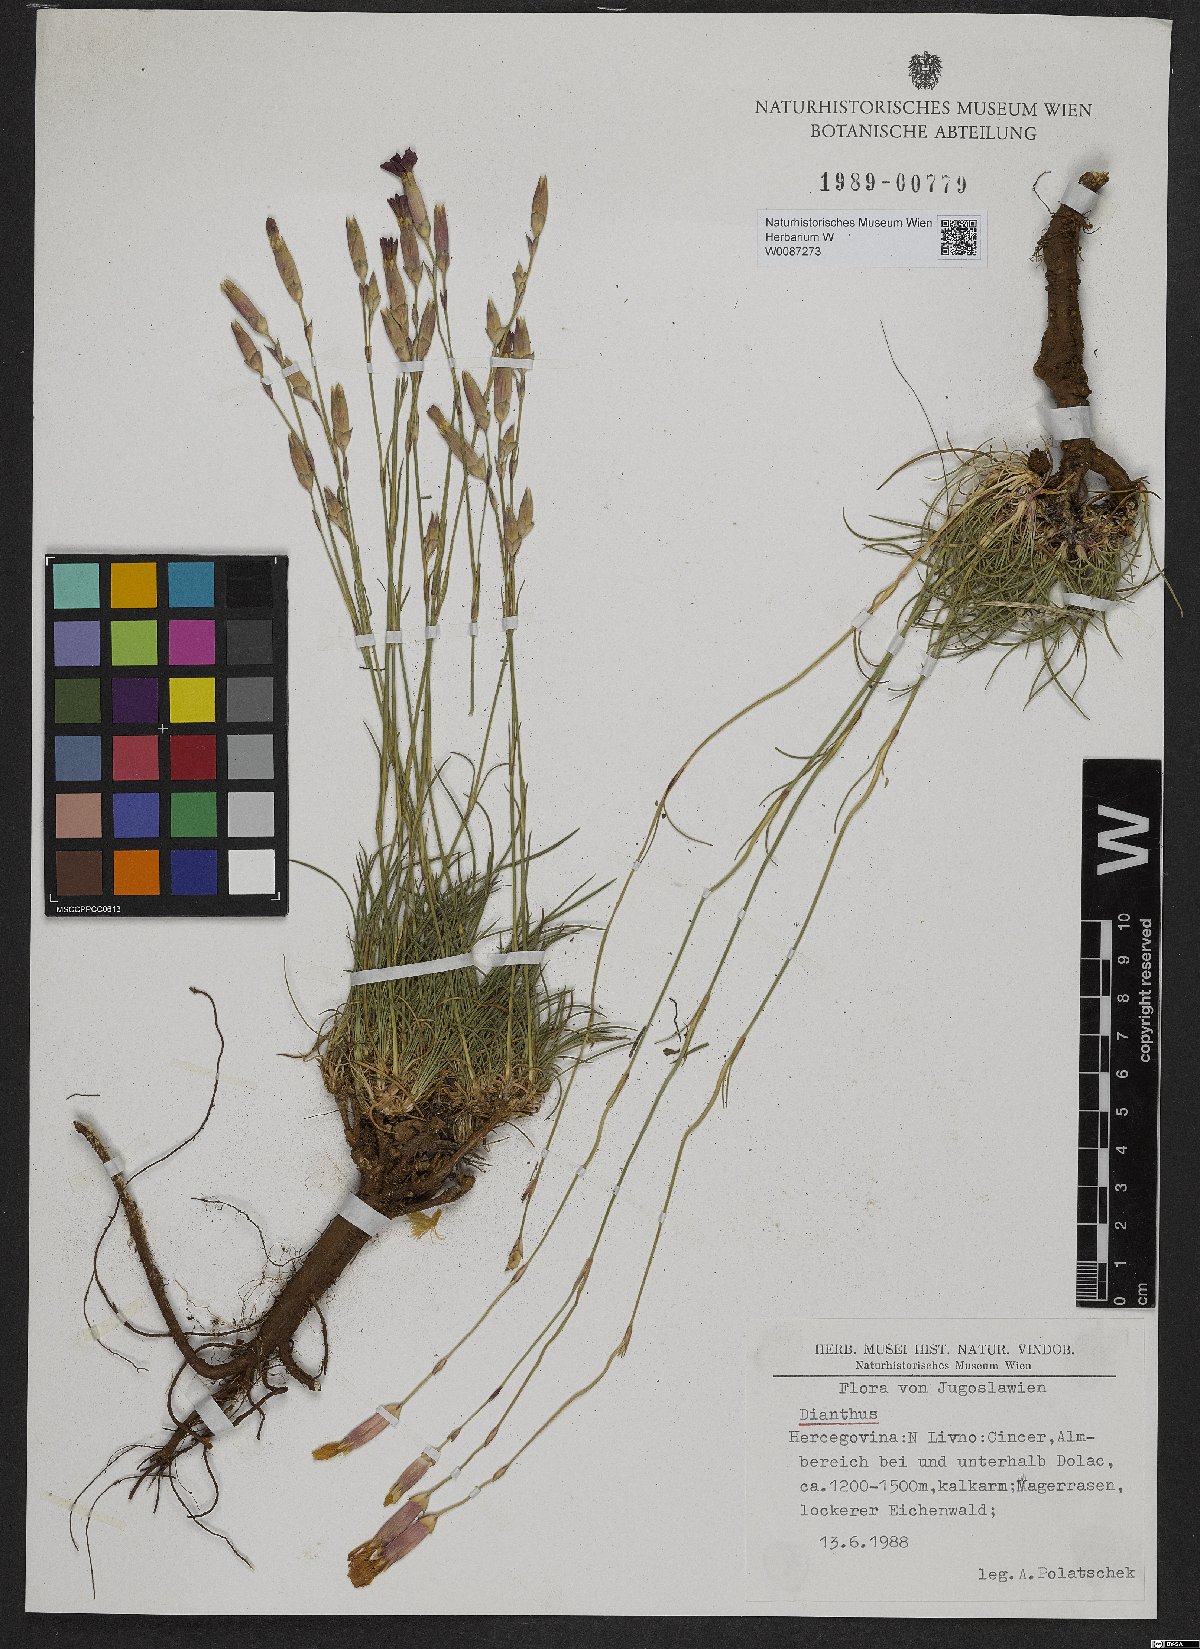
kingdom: Plantae
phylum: Tracheophyta
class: Magnoliopsida
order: Caryophyllales
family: Caryophyllaceae
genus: Dianthus
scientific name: Dianthus
